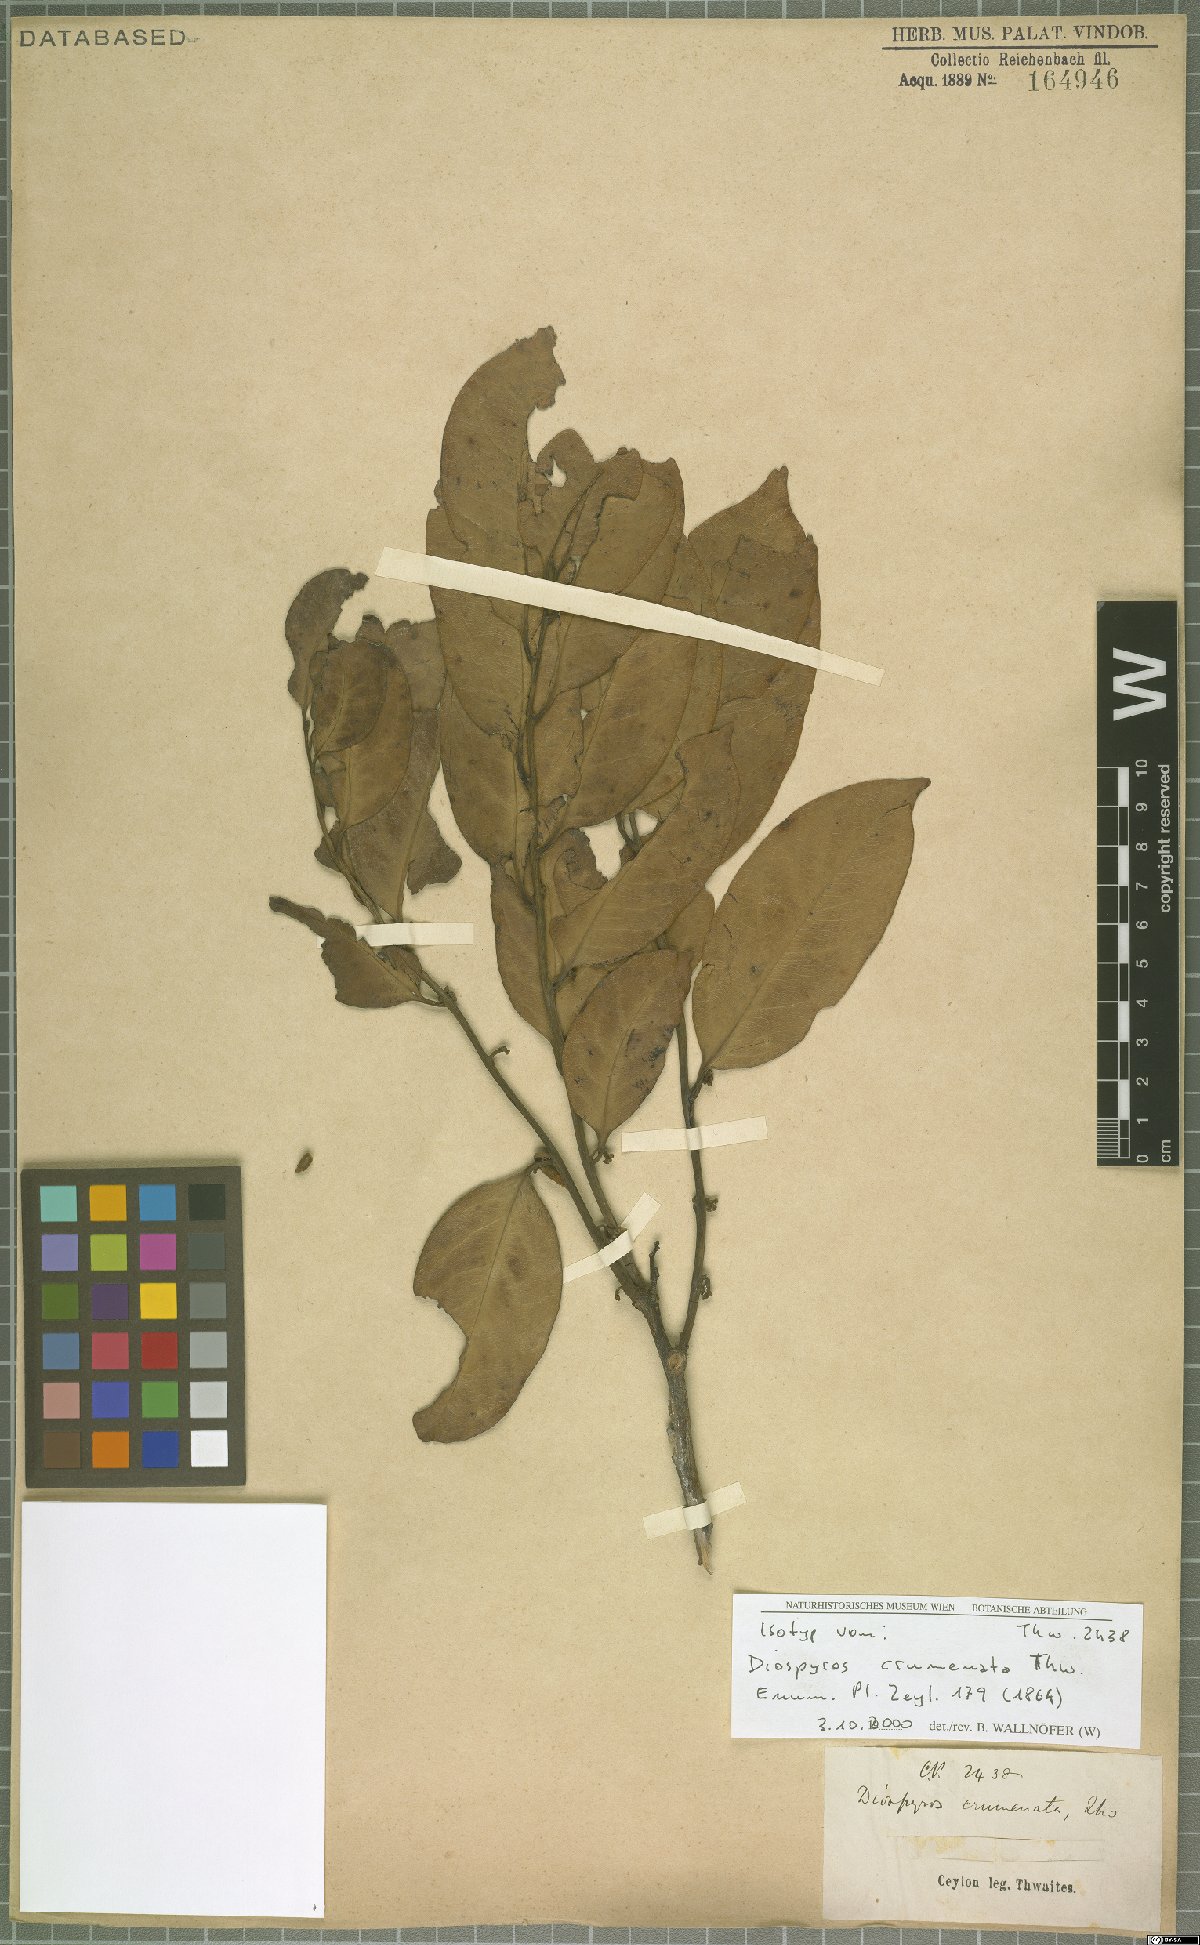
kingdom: Plantae
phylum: Tracheophyta
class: Magnoliopsida
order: Ericales
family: Ebenaceae
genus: Diospyros
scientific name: Diospyros crumenata
